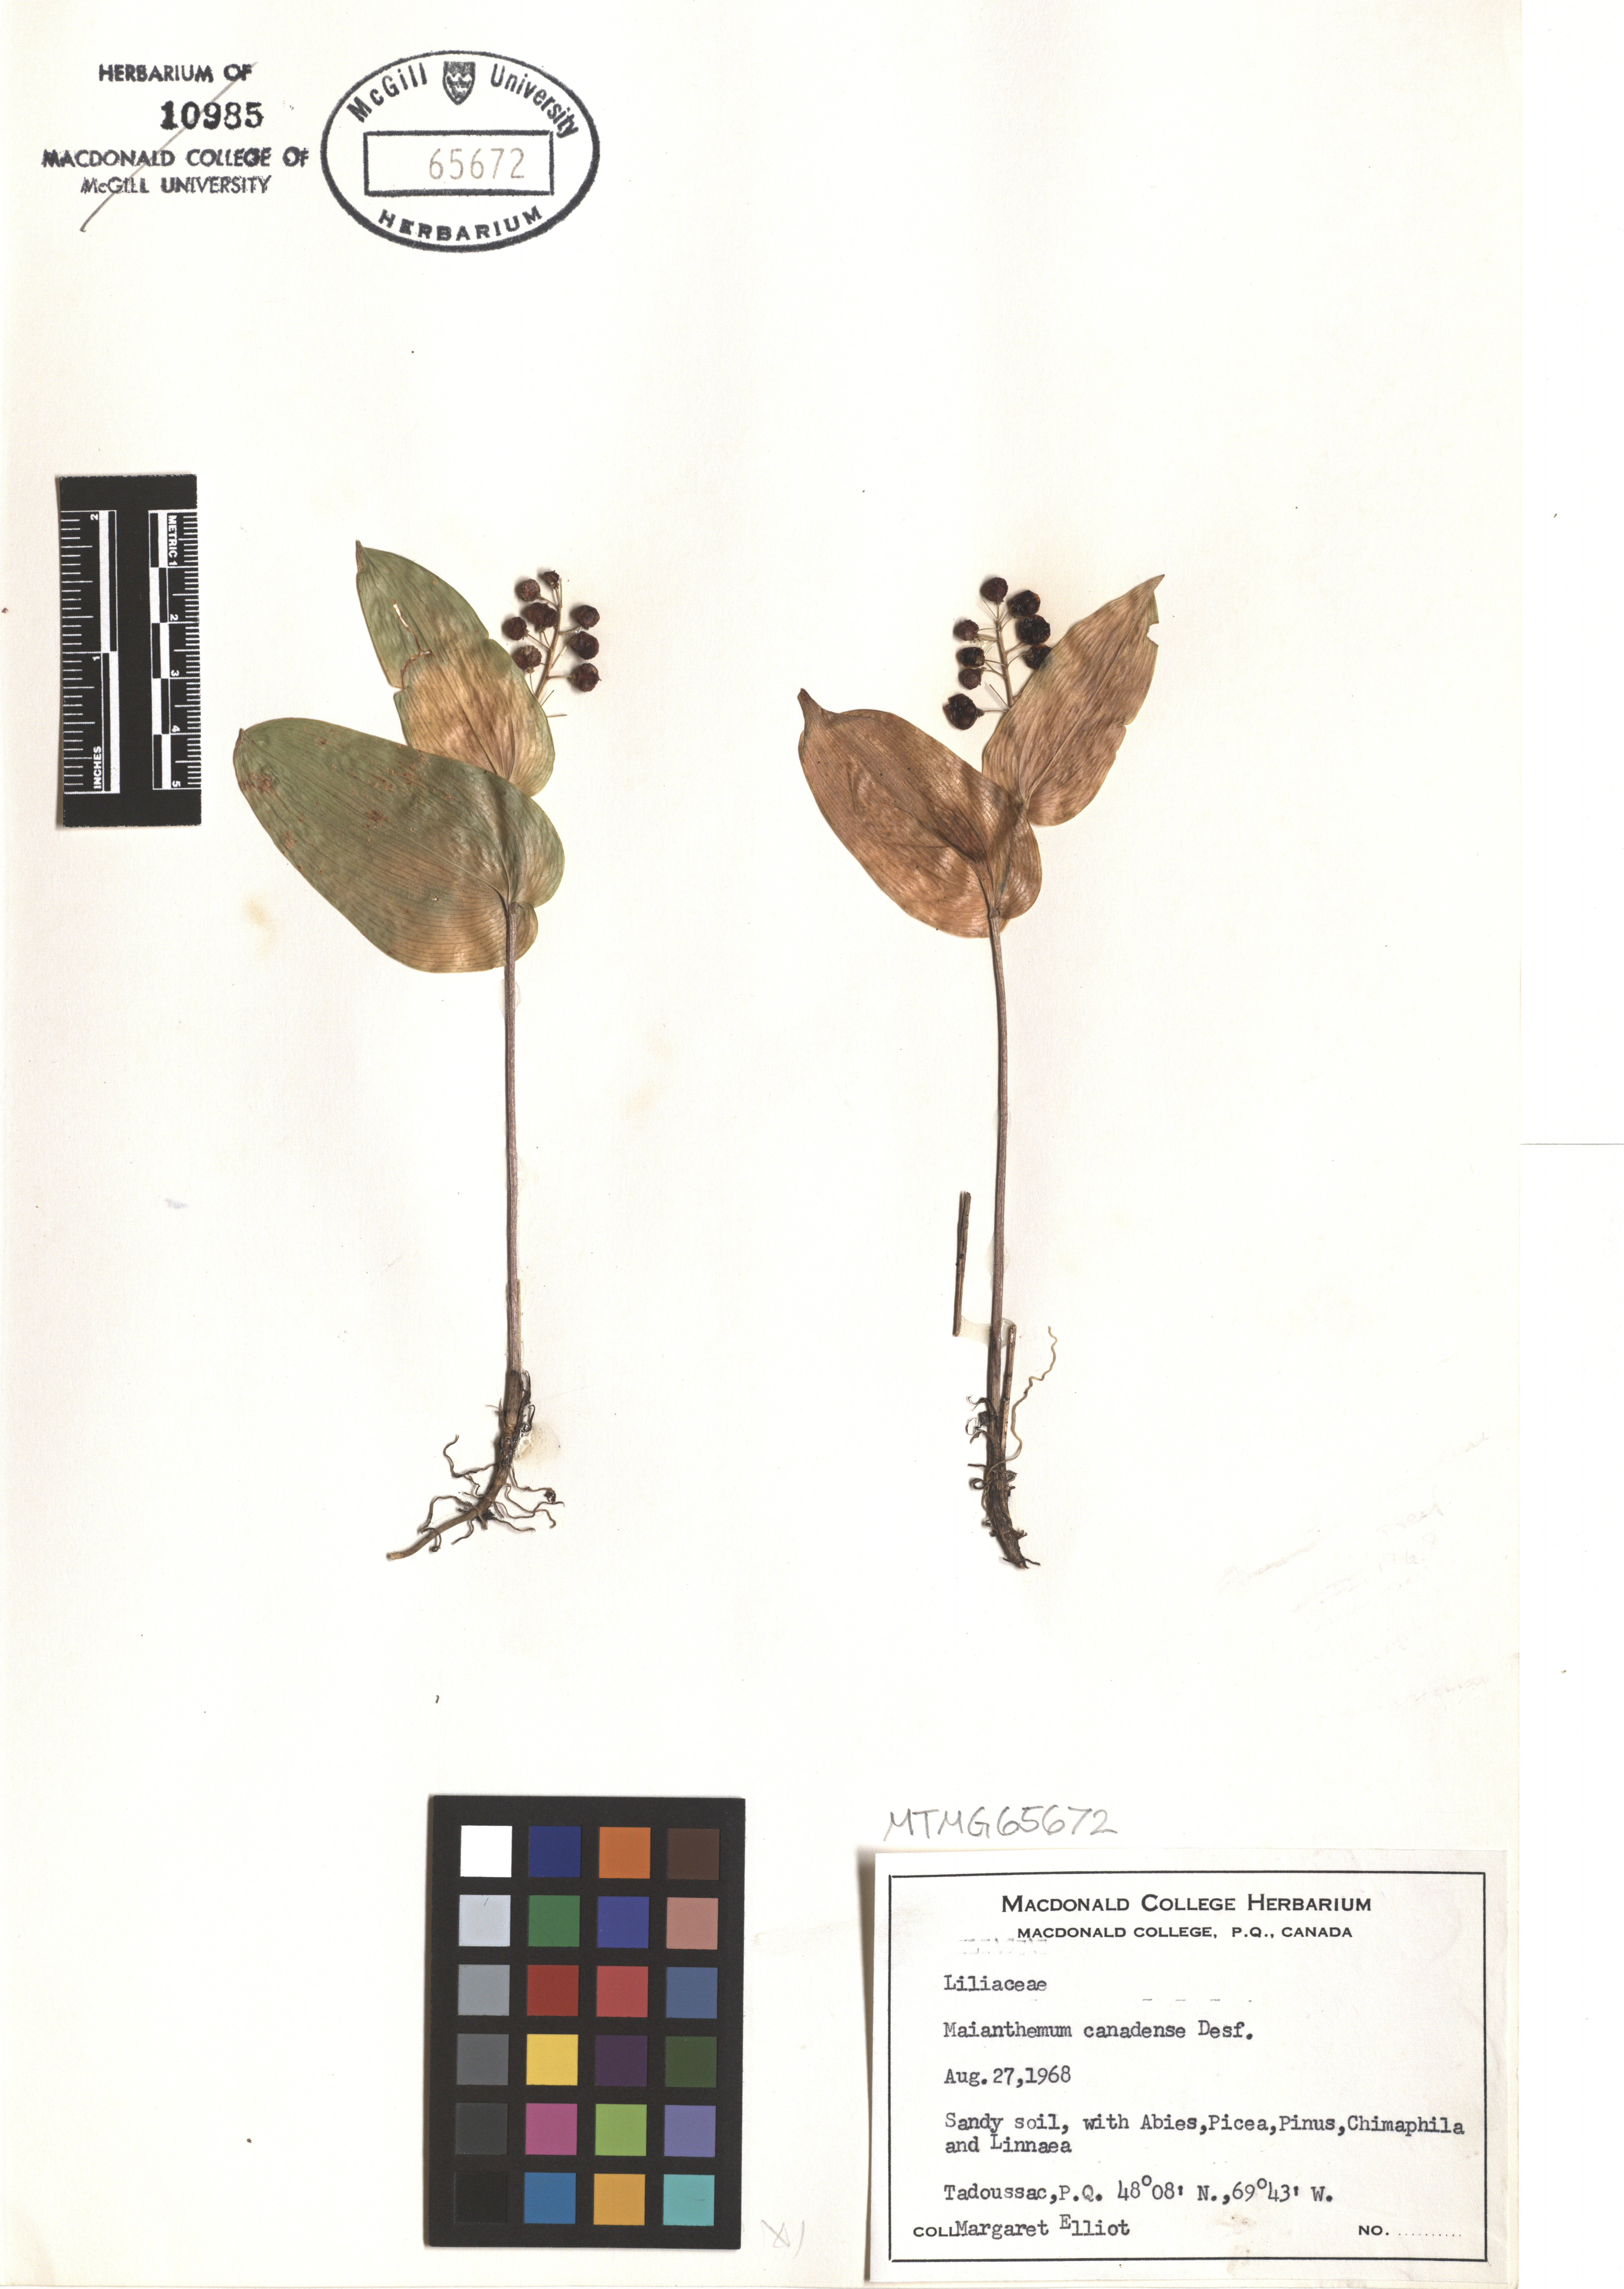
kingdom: Plantae
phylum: Tracheophyta
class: Liliopsida
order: Asparagales
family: Asparagaceae
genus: Maianthemum
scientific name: Maianthemum canadense
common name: False lily-of-the-valley
